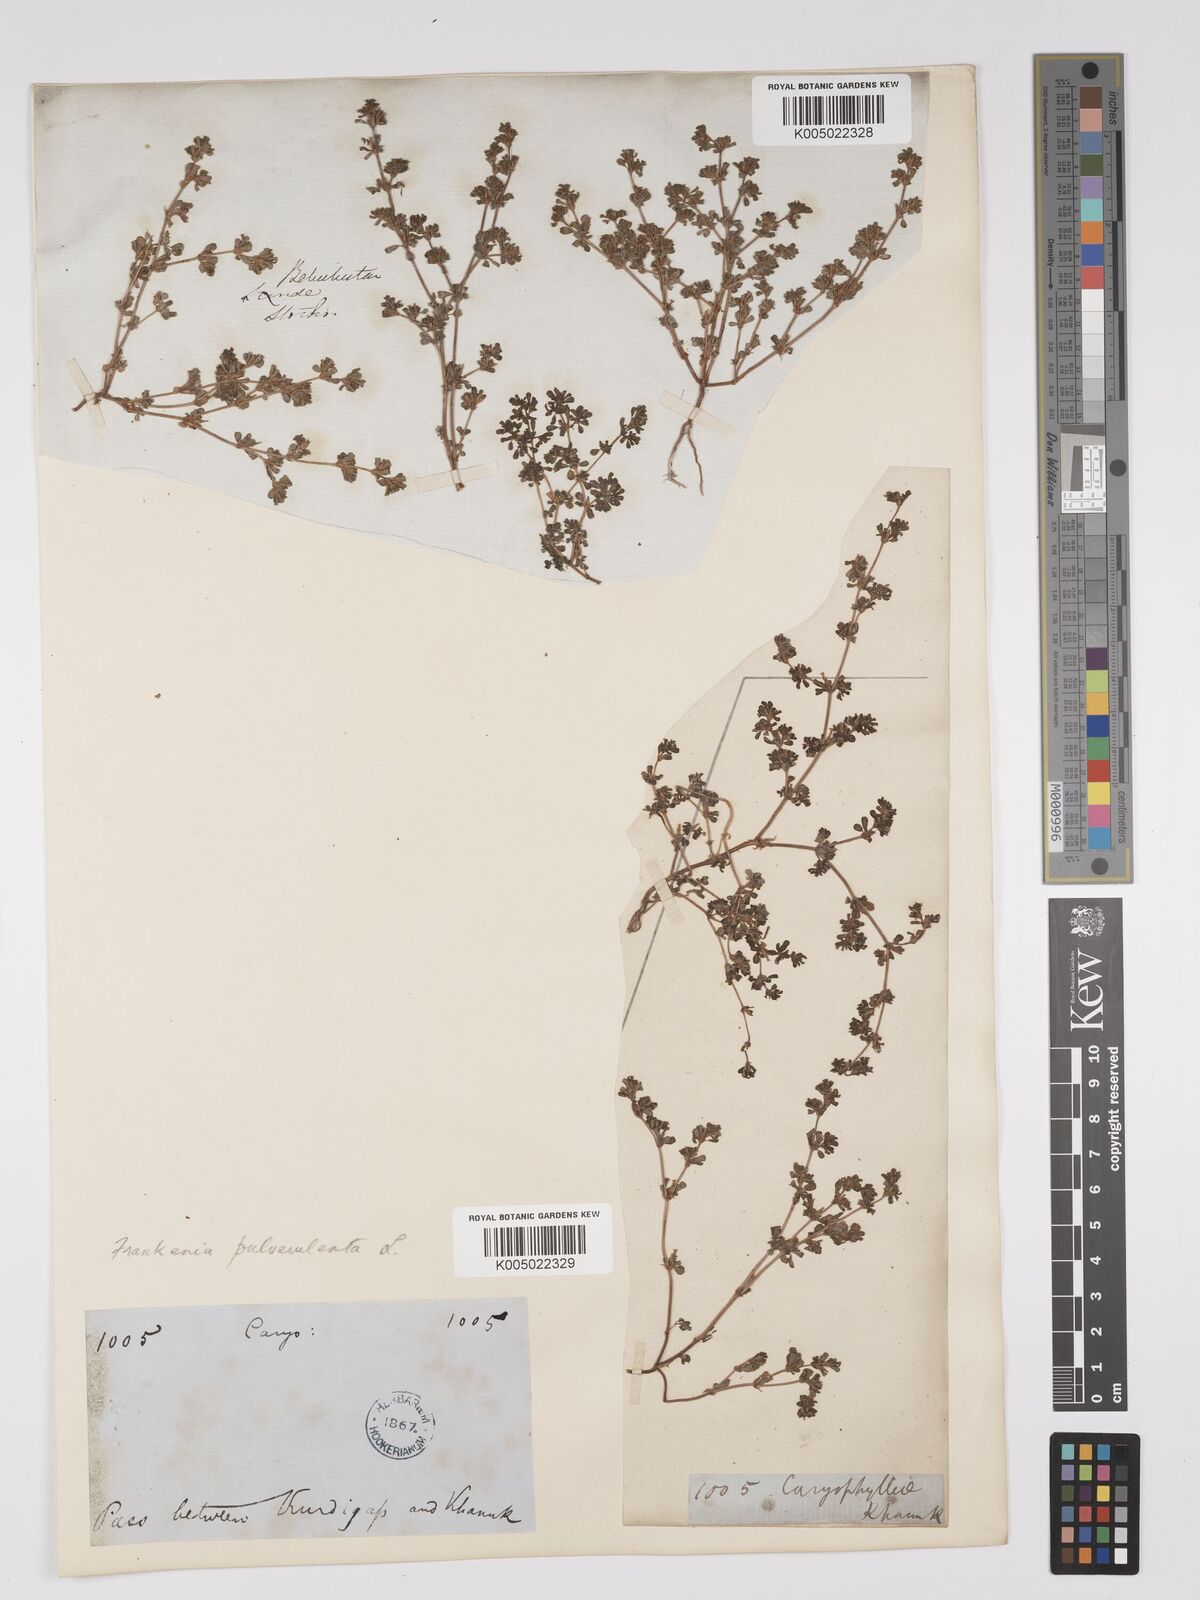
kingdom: Plantae
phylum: Tracheophyta
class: Magnoliopsida
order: Caryophyllales
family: Frankeniaceae
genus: Frankenia
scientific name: Frankenia pulverulenta
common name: European seaheath
